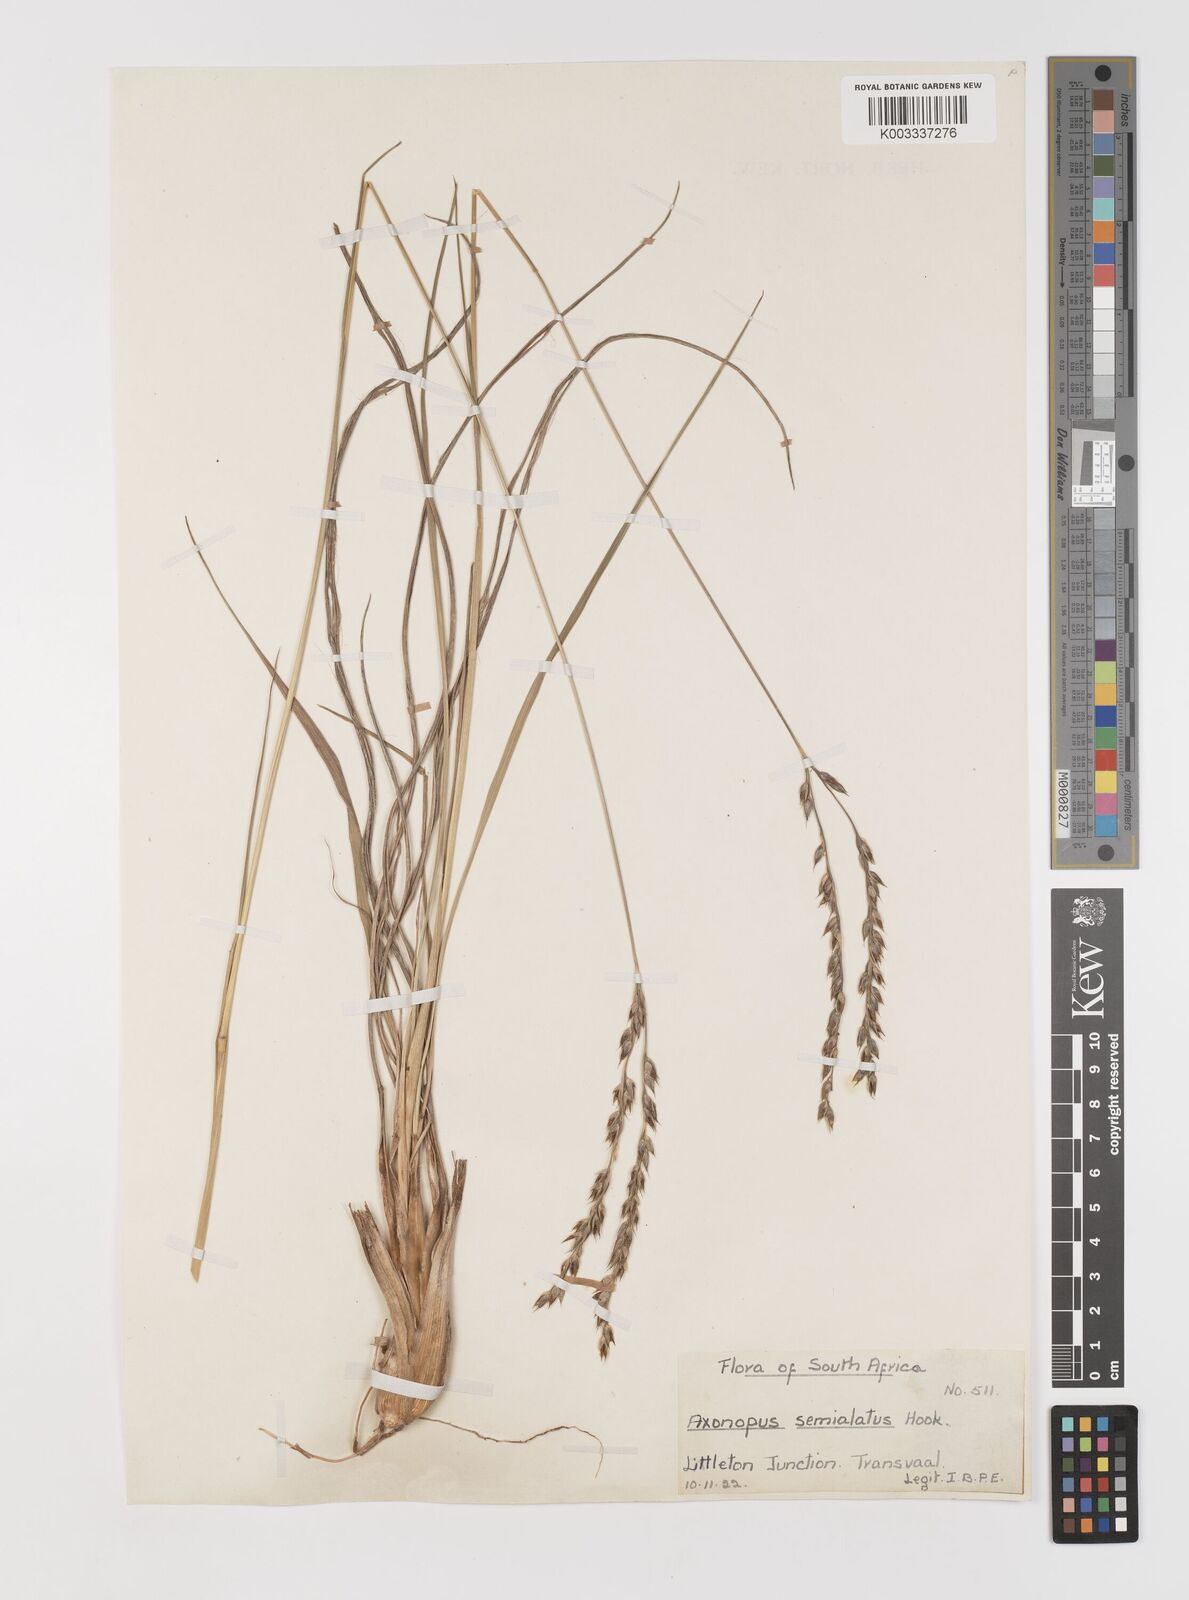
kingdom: Plantae
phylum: Tracheophyta
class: Liliopsida
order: Poales
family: Poaceae
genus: Alloteropsis
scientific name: Alloteropsis semialata
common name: Cockatoo grass
